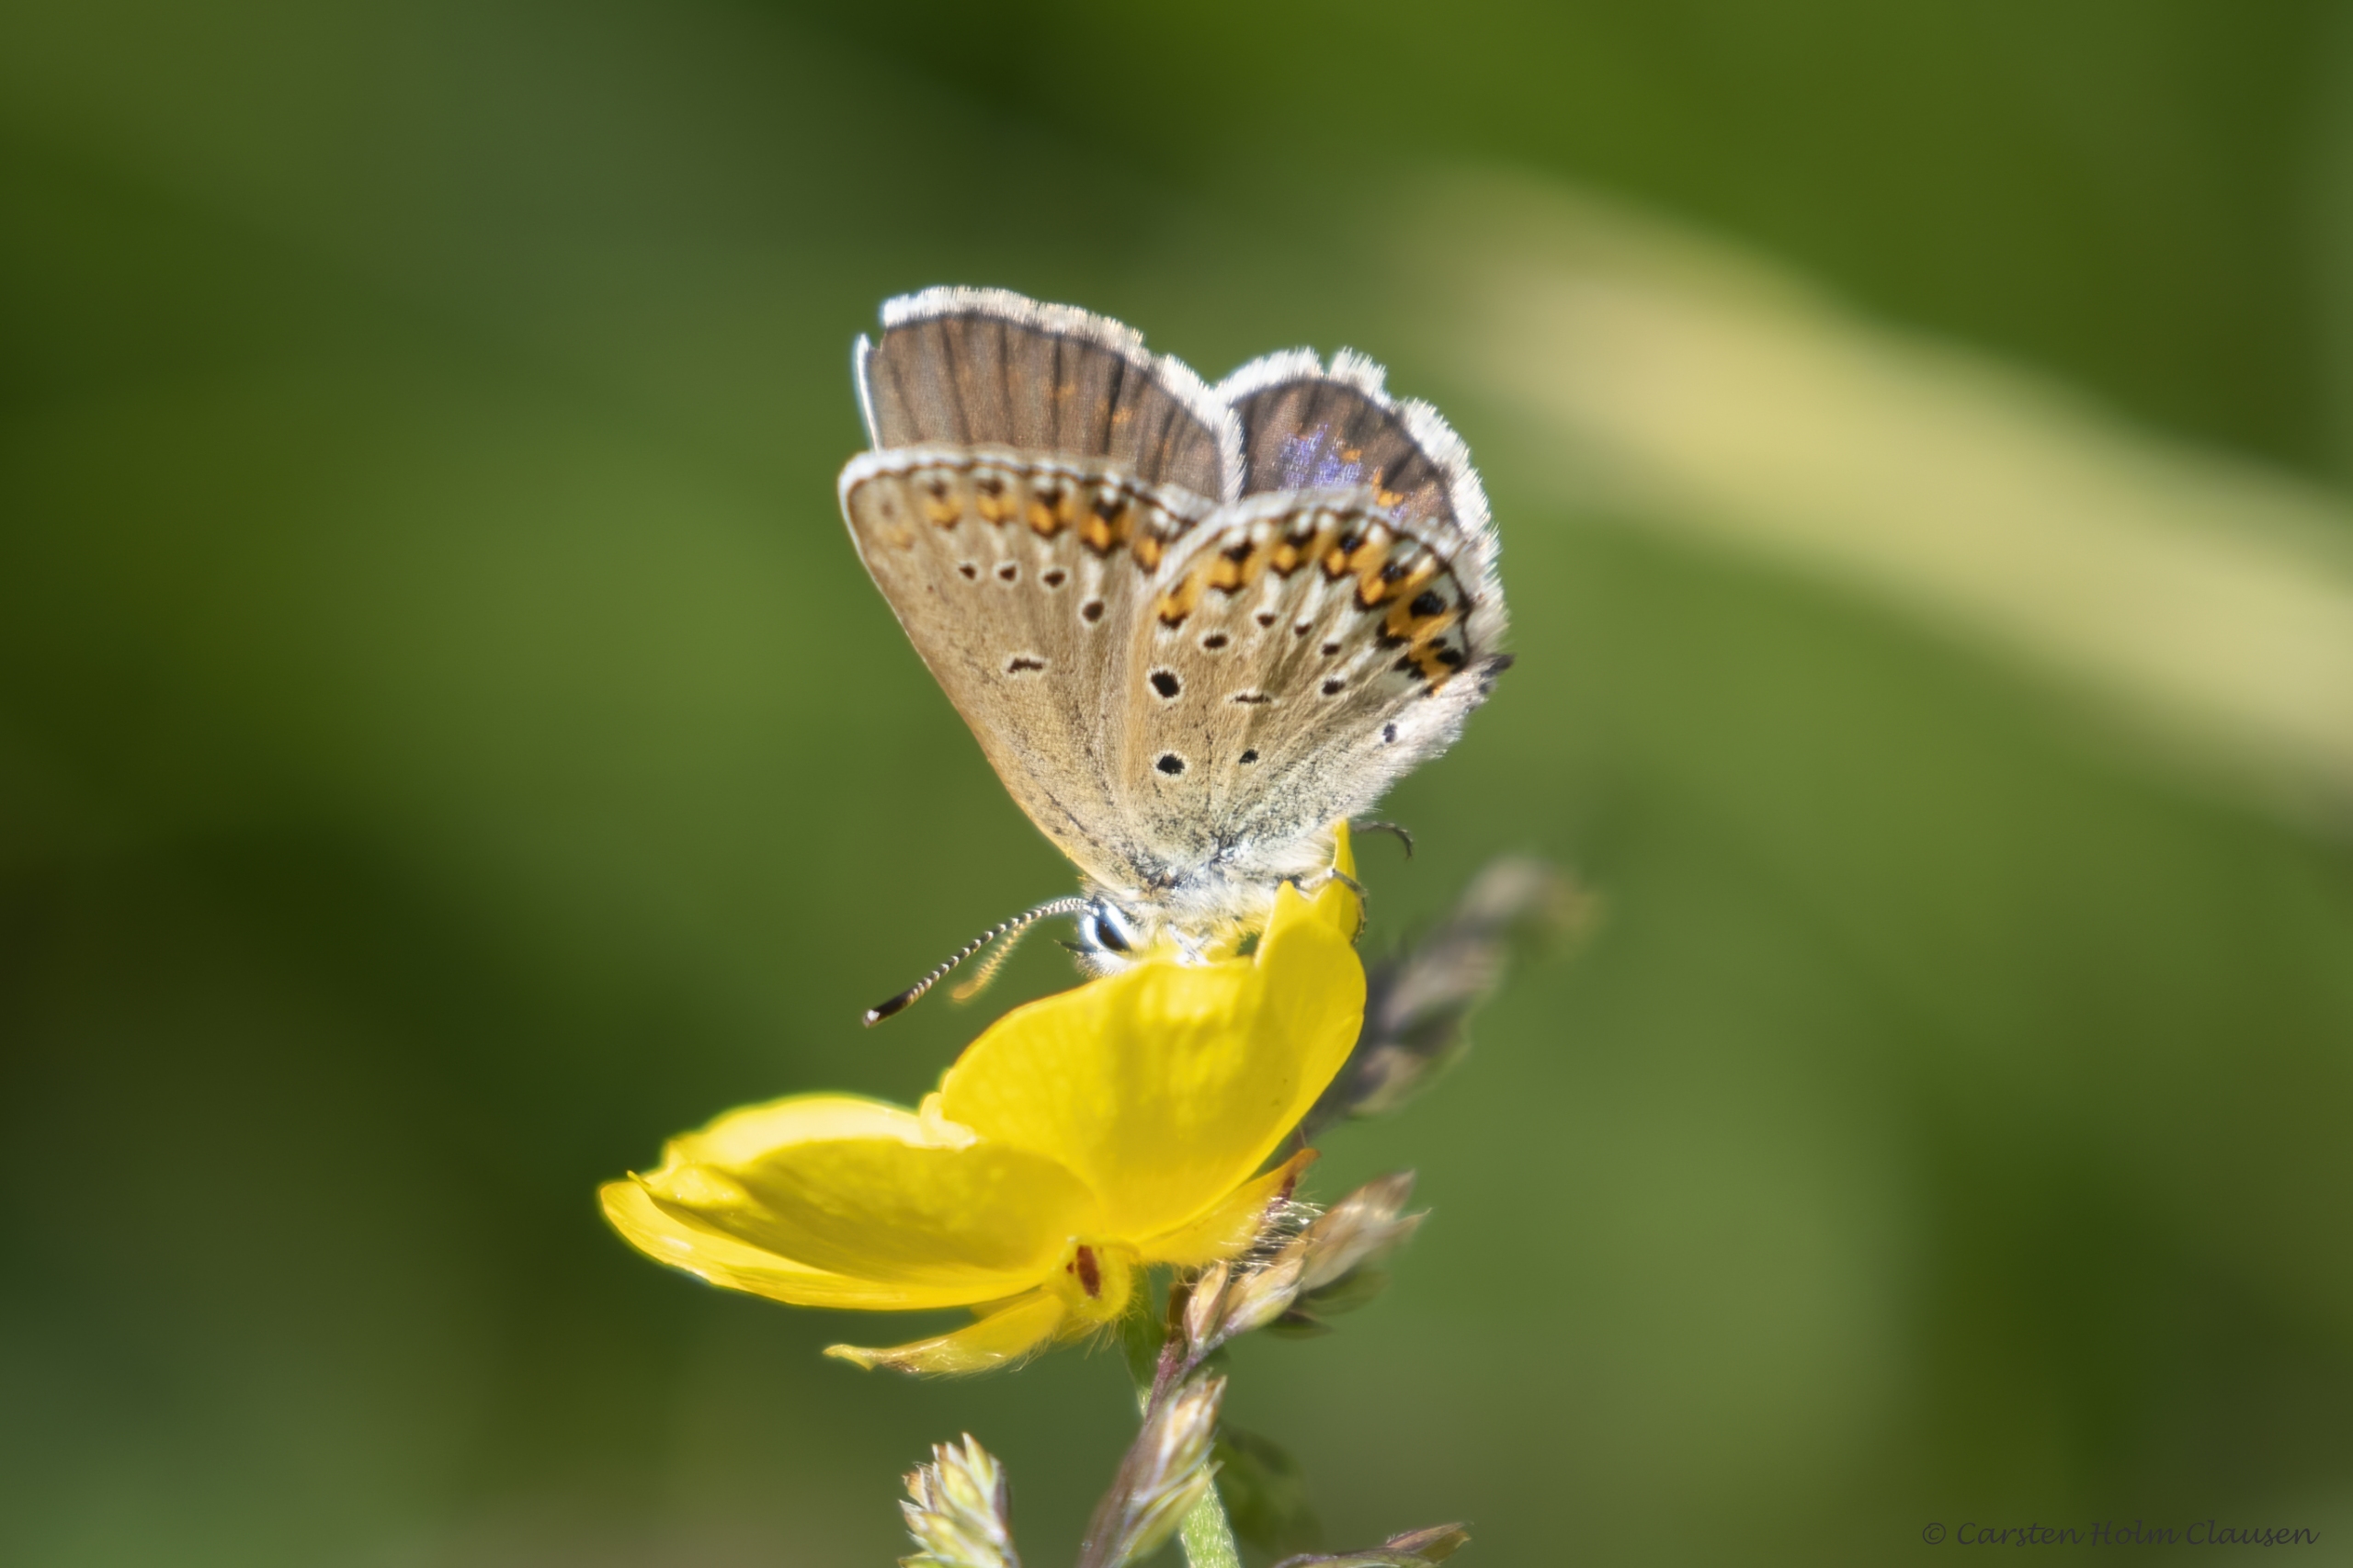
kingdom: Animalia
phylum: Arthropoda
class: Insecta
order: Lepidoptera
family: Lycaenidae
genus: Lycaeides
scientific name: Lycaeides idas
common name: Foranderlig blåfugl
